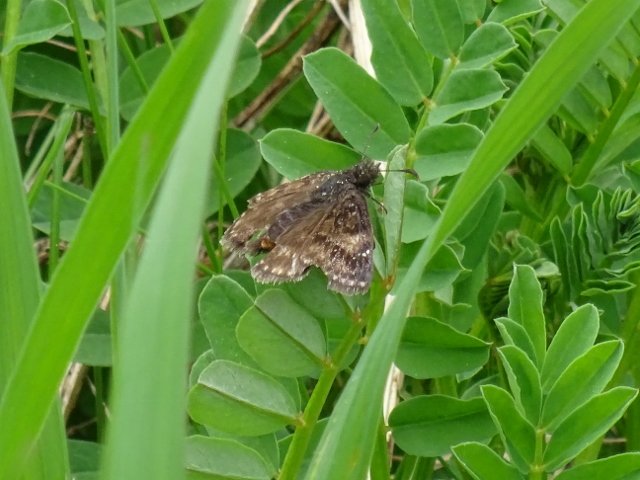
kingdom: Animalia
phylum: Arthropoda
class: Insecta
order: Lepidoptera
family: Hesperiidae
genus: Erynnis
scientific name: Erynnis
